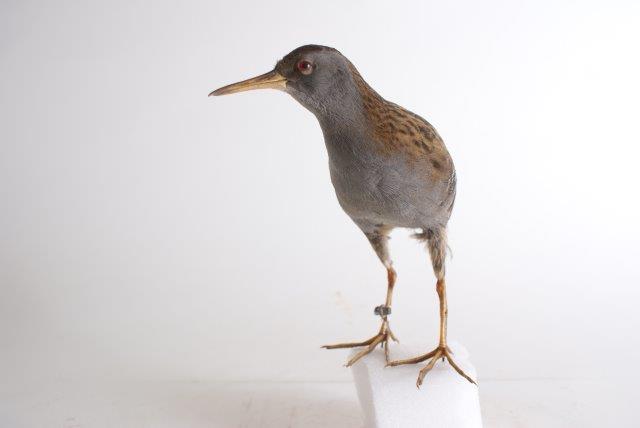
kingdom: Animalia
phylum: Chordata
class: Aves
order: Gruiformes
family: Rallidae
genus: Rallus
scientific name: Rallus aquaticus
